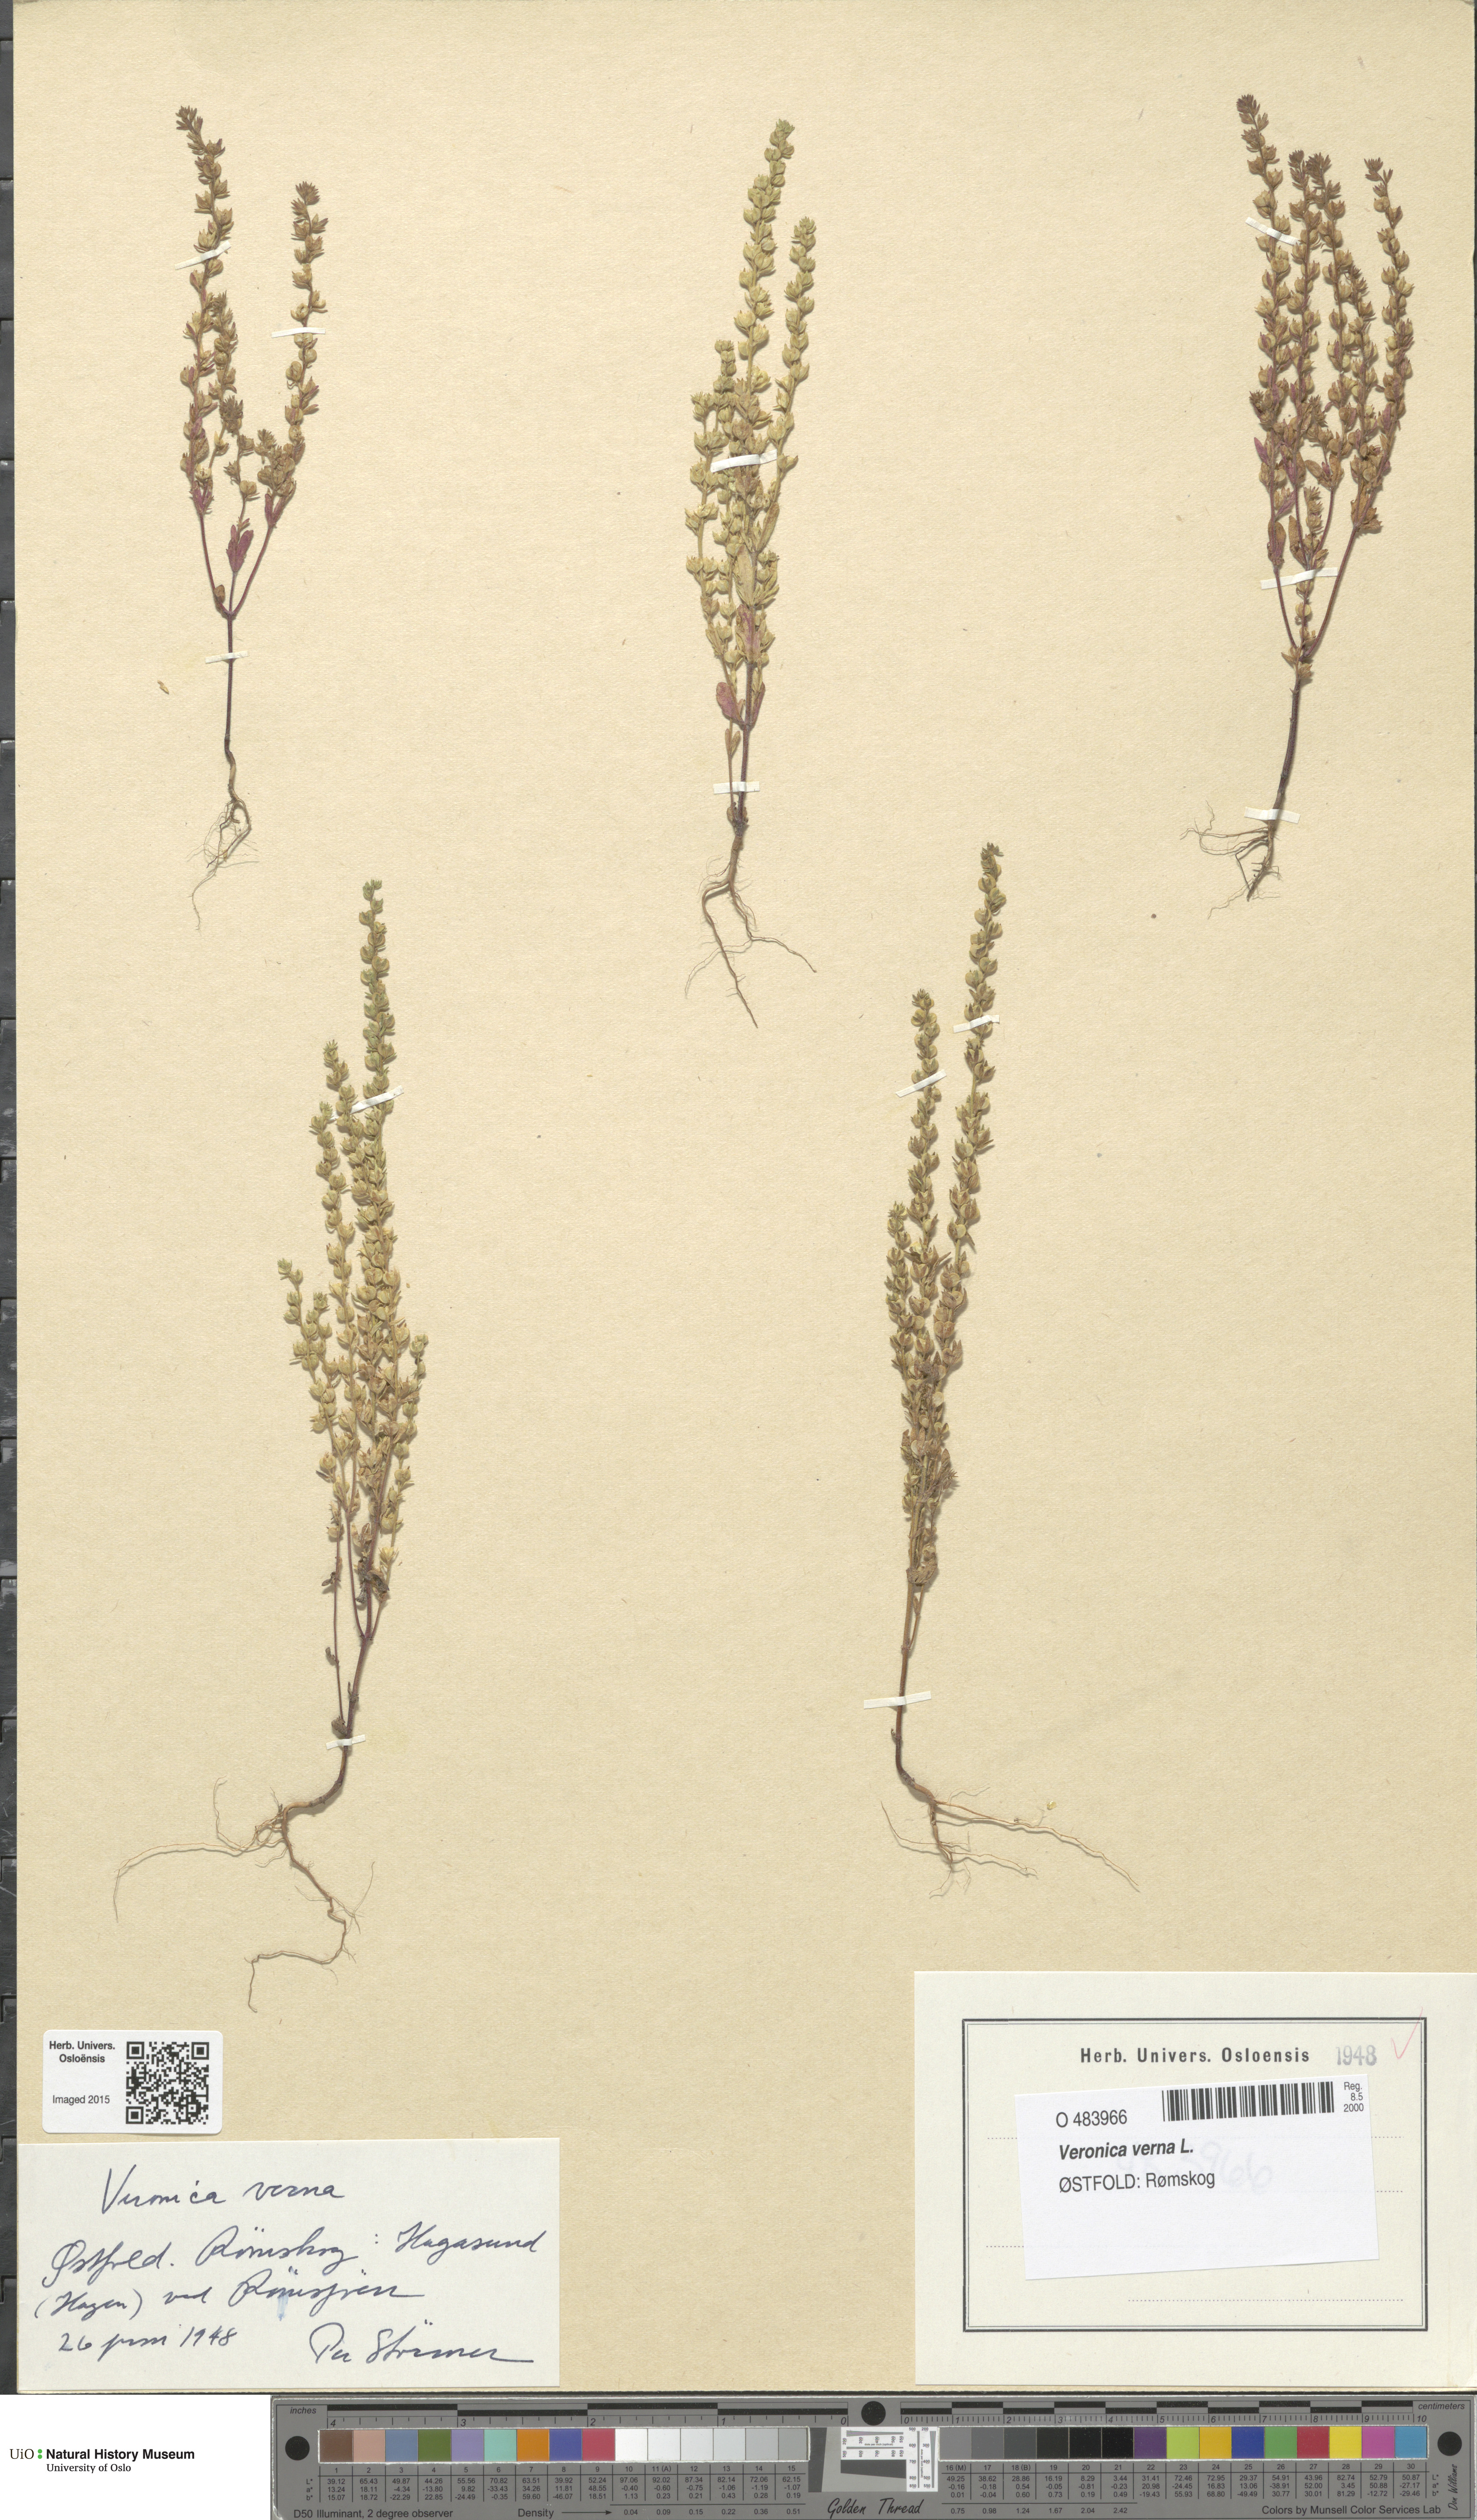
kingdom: Plantae
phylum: Tracheophyta
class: Magnoliopsida
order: Lamiales
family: Plantaginaceae
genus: Veronica
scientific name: Veronica verna
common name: Spring speedwell
